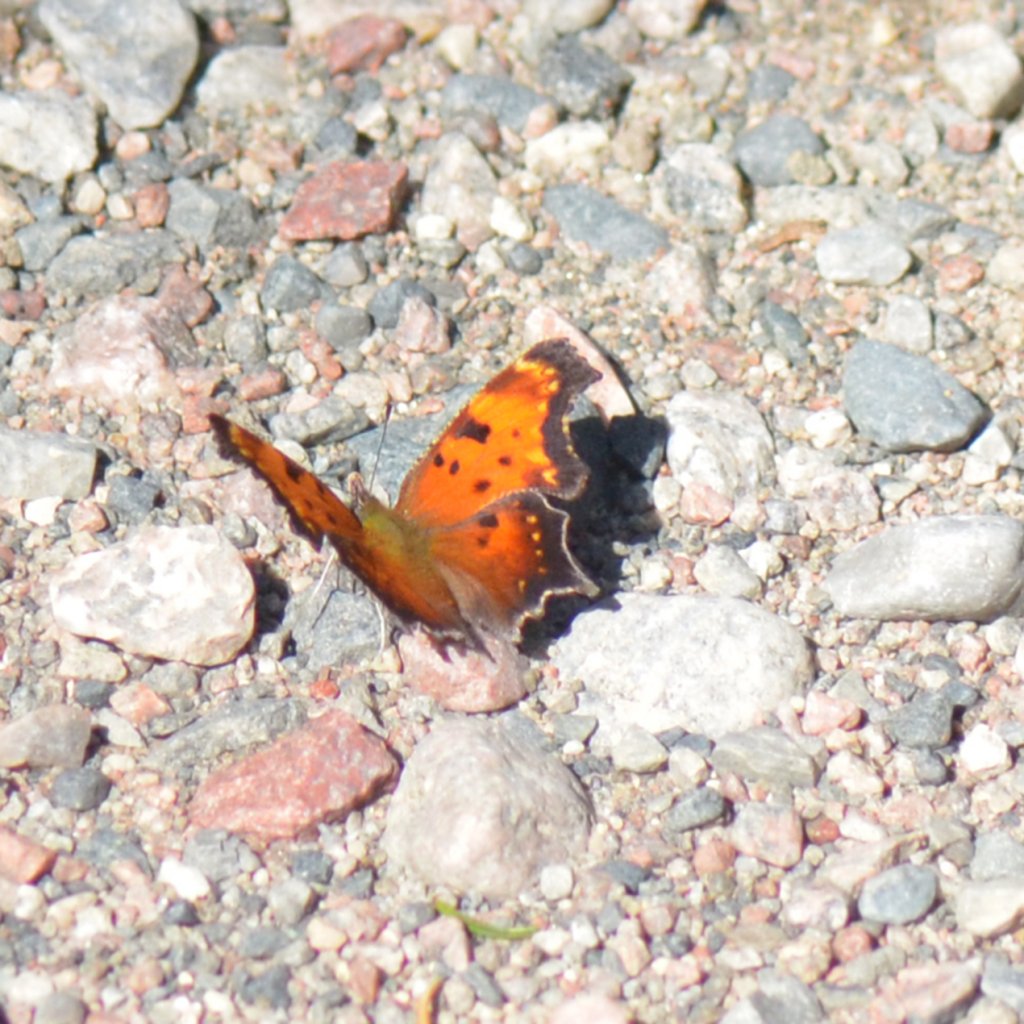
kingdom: Animalia
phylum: Arthropoda
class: Insecta
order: Lepidoptera
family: Nymphalidae
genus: Polygonia
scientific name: Polygonia progne
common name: Gray Comma
